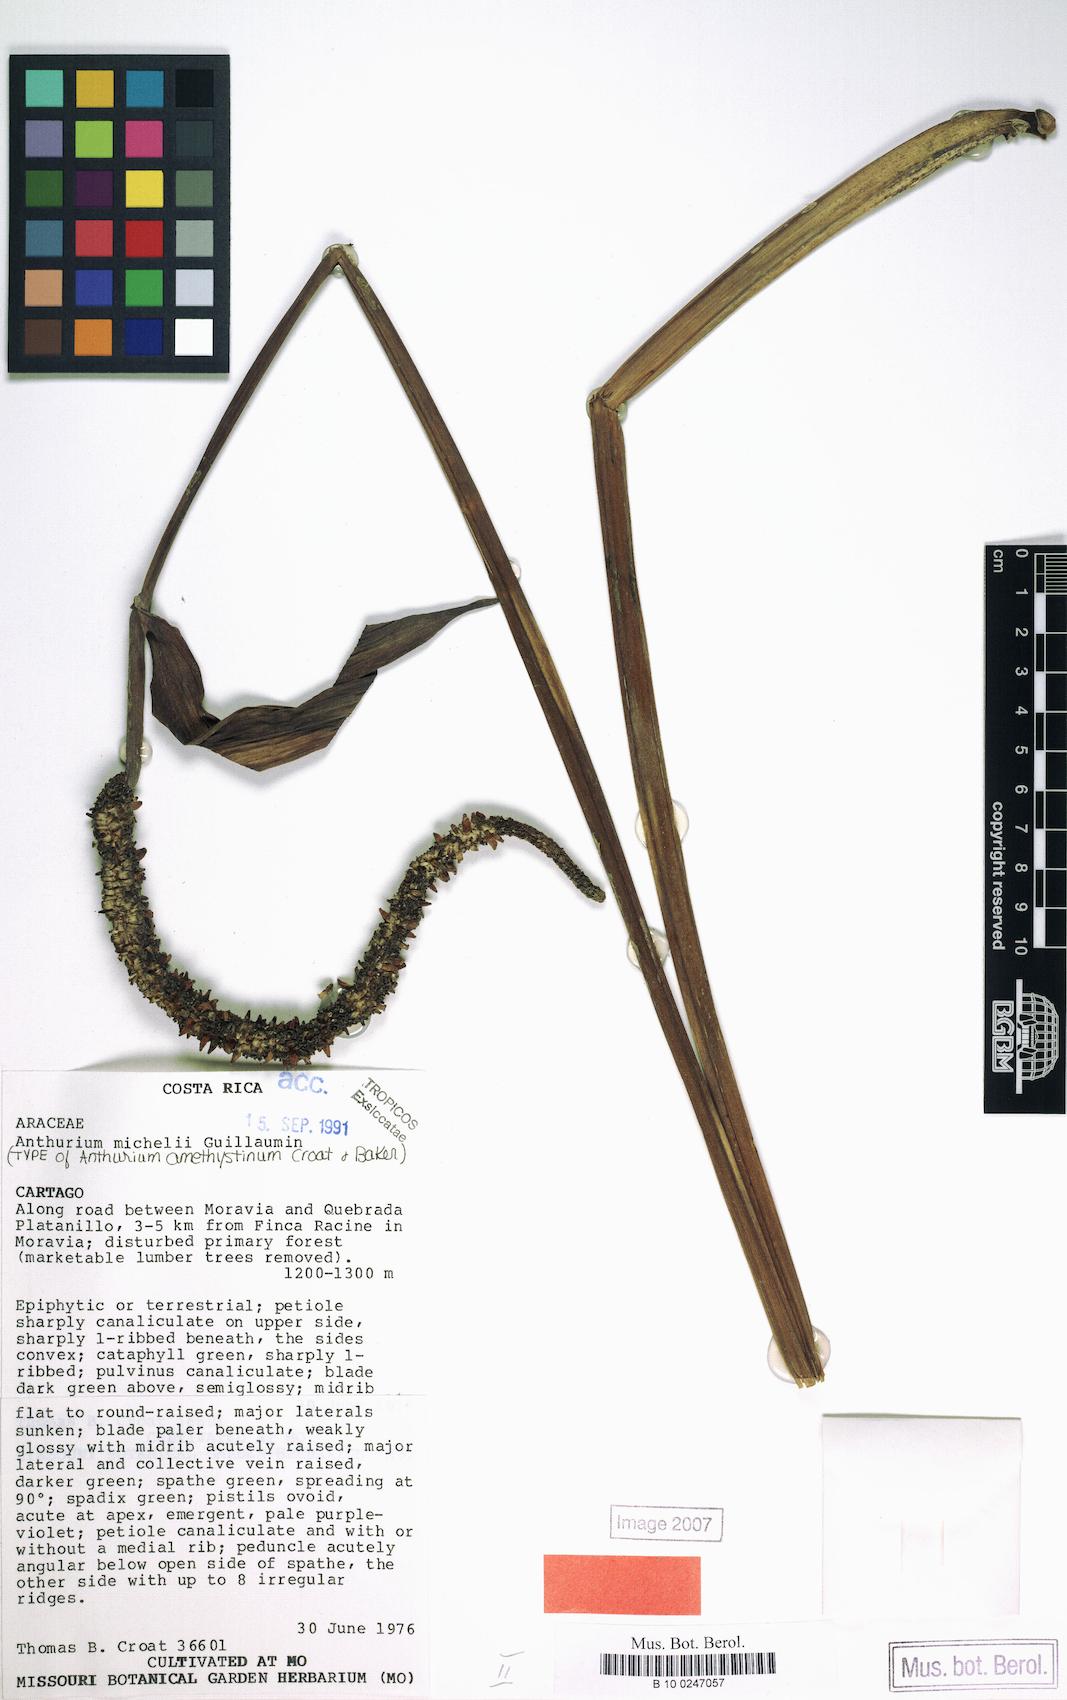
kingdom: Plantae
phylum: Tracheophyta
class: Liliopsida
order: Alismatales
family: Araceae
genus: Anthurium
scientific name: Anthurium michelii
